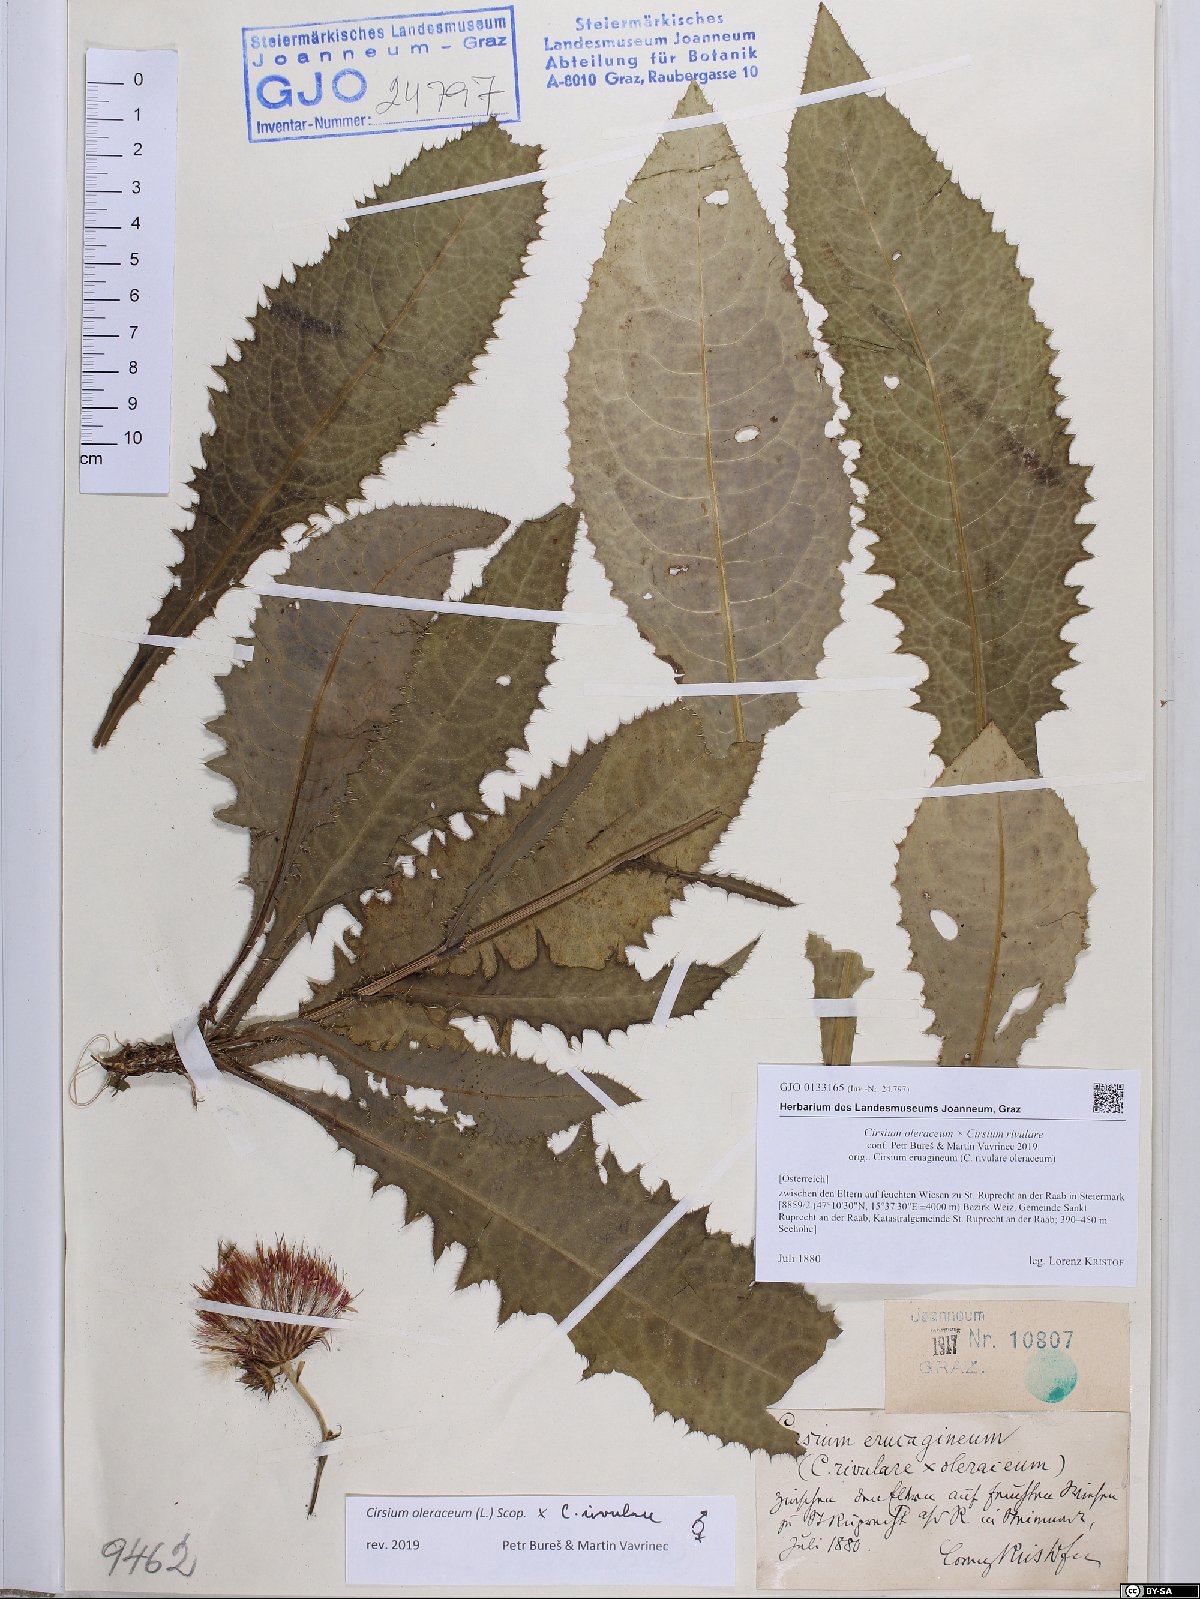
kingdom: Plantae
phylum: Tracheophyta
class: Magnoliopsida
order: Asterales
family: Asteraceae
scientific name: Asteraceae
